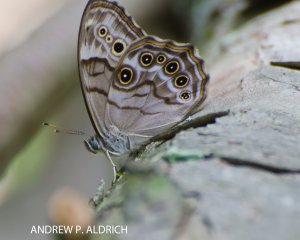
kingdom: Animalia
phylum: Arthropoda
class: Insecta
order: Lepidoptera
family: Nymphalidae
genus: Lethe
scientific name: Lethe anthedon
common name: Northern Pearly-Eye
